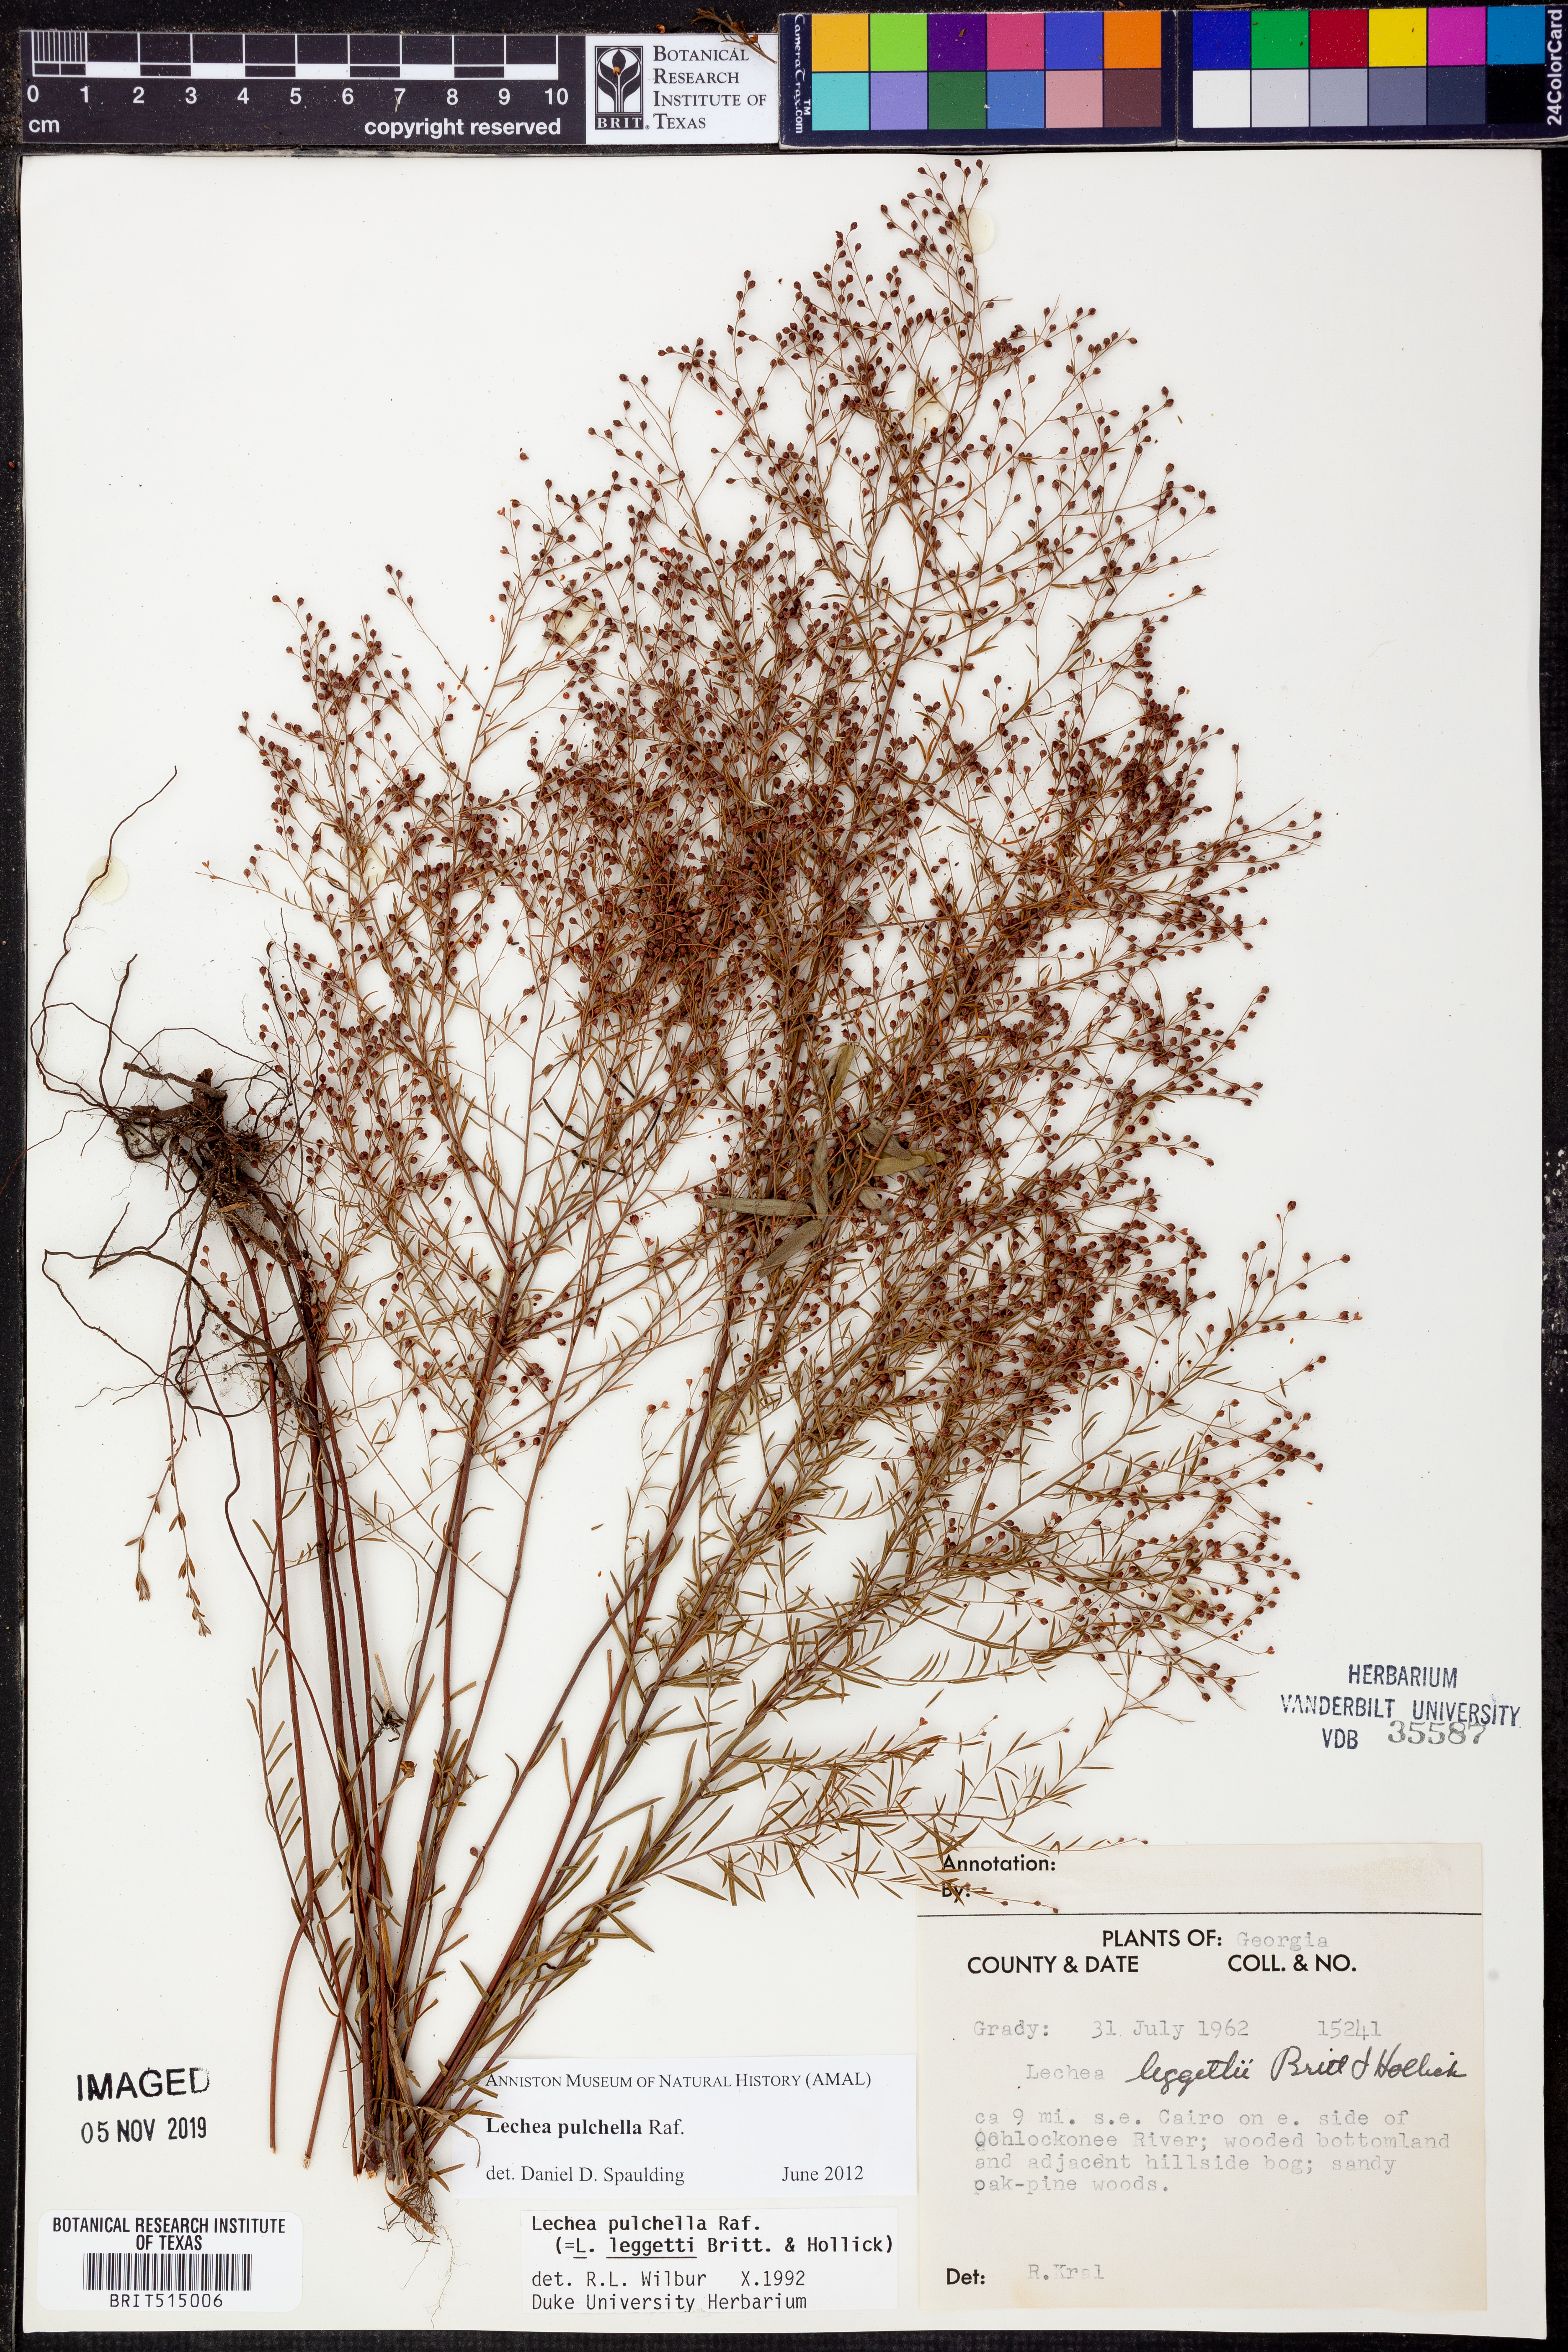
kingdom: Plantae
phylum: Tracheophyta
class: Magnoliopsida
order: Malvales
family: Cistaceae
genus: Lechea
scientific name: Lechea pulchella
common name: Leggett's pinweed
